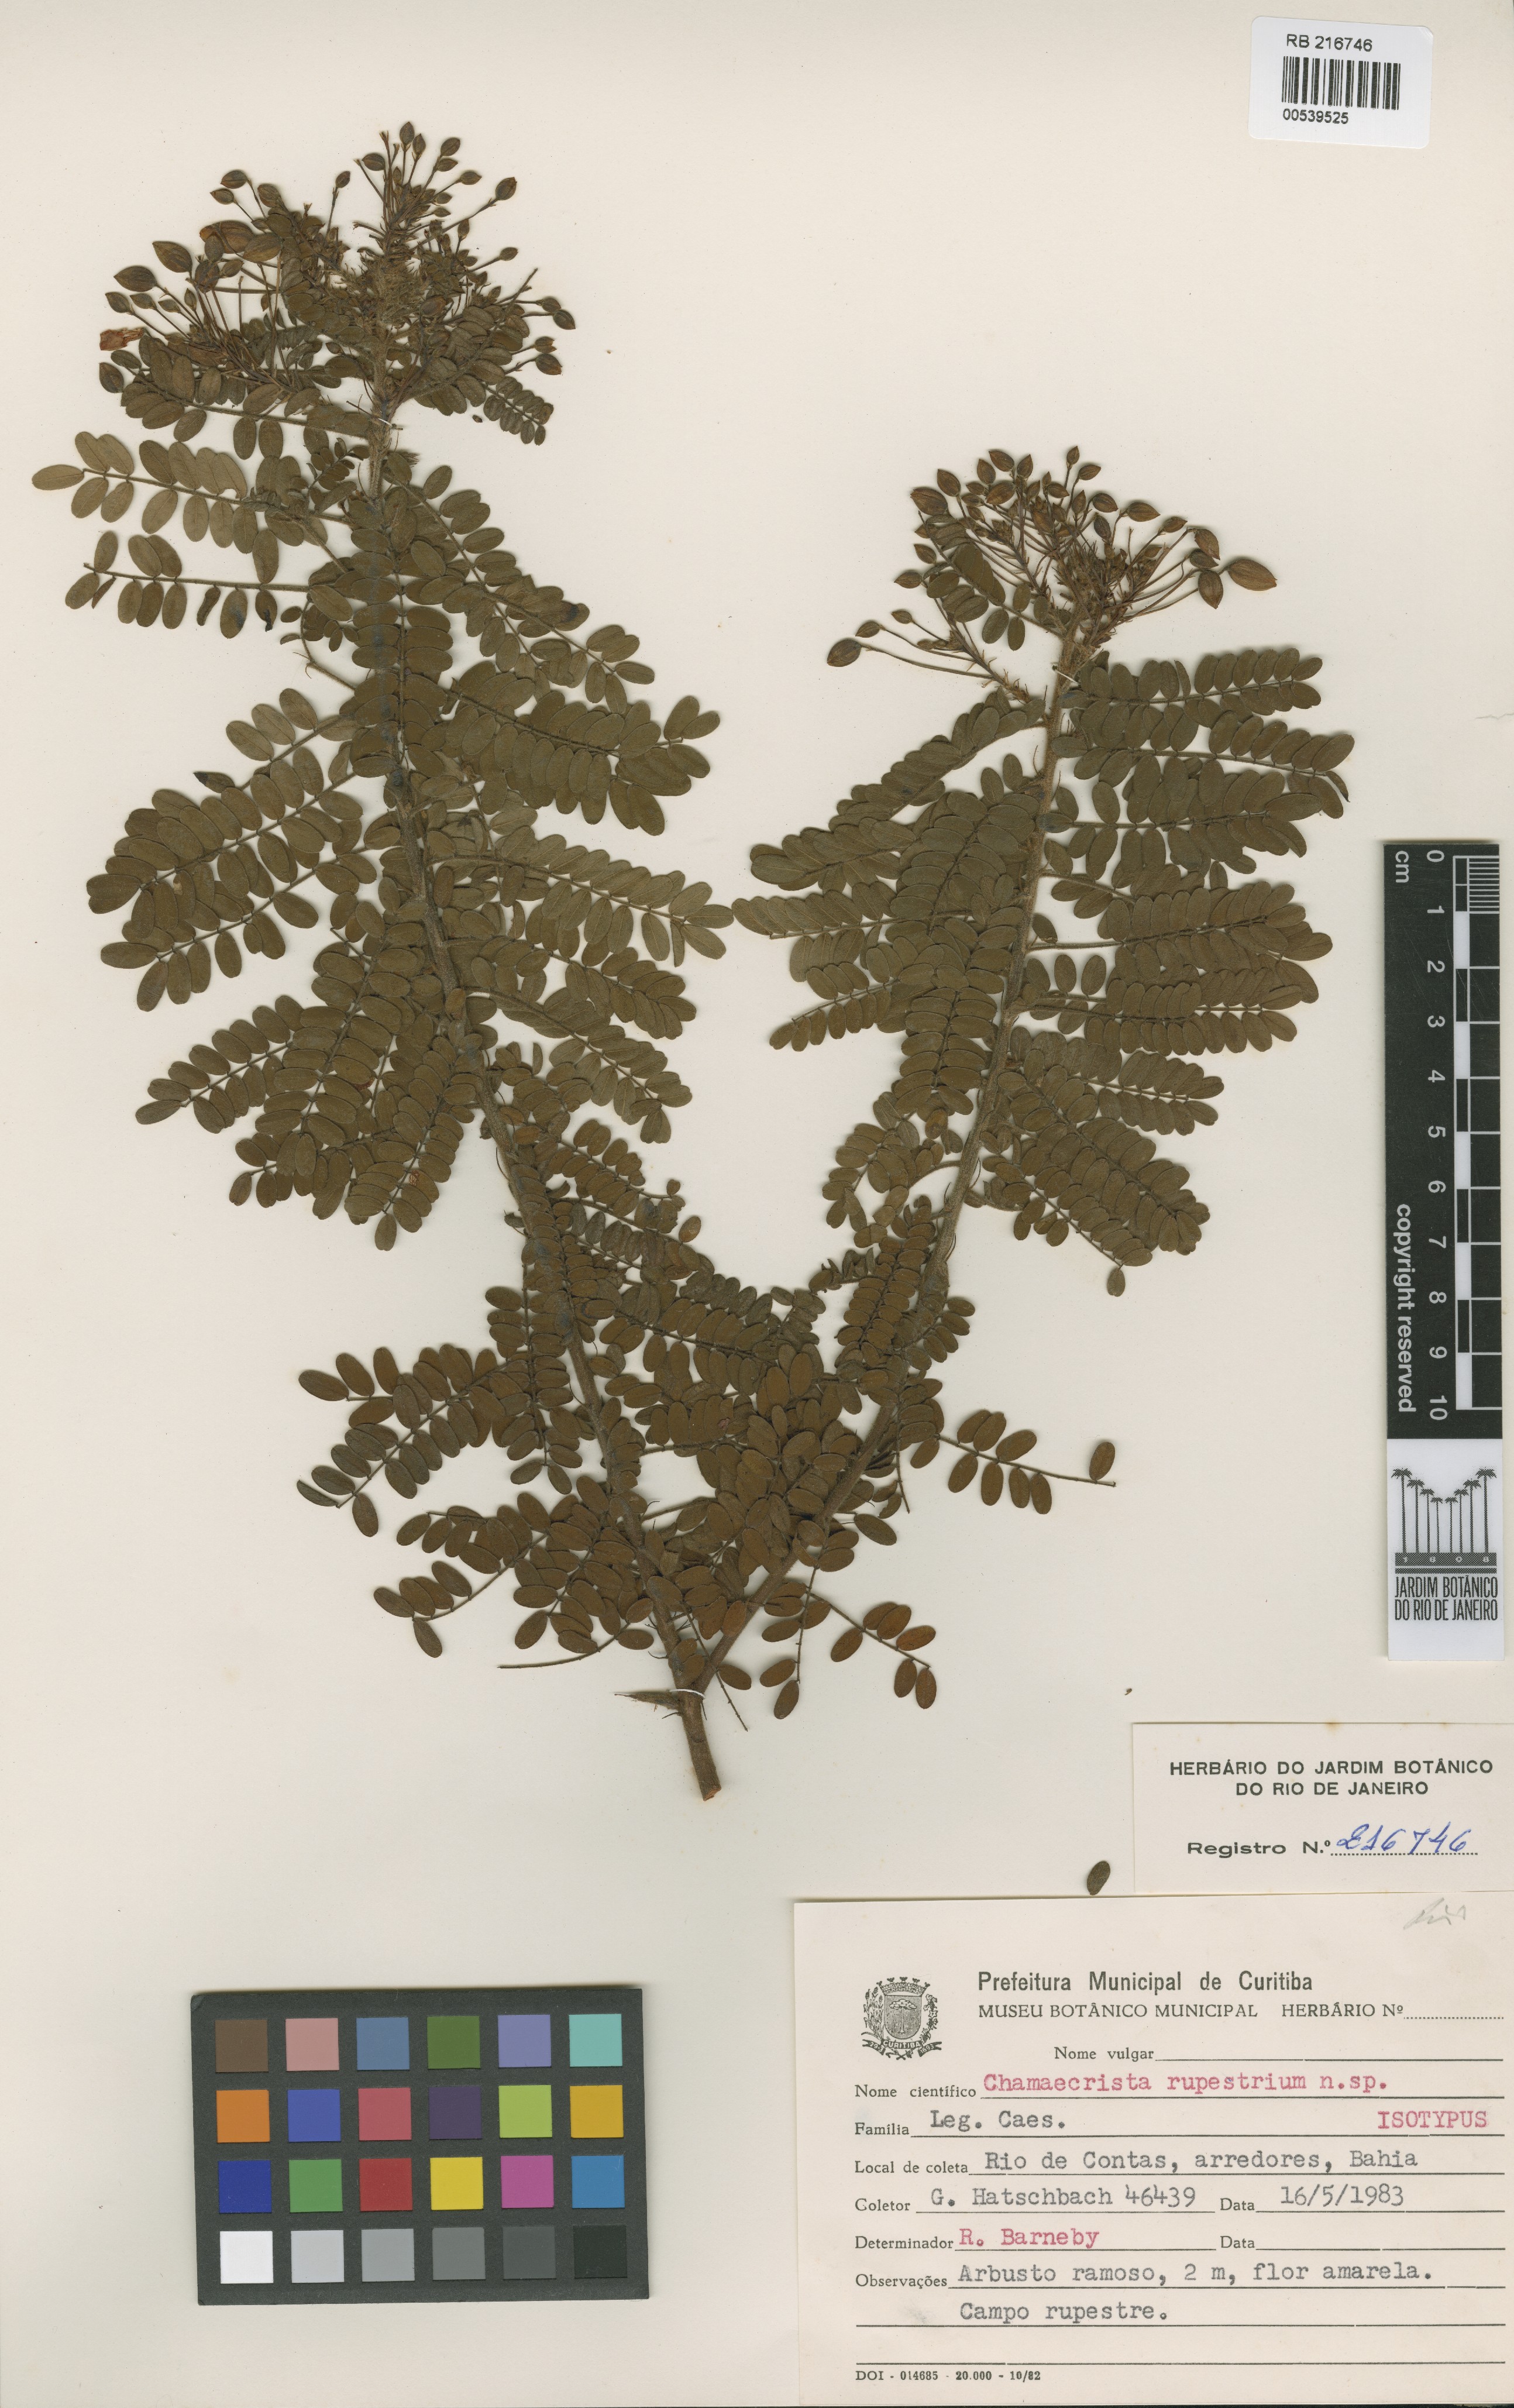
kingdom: Plantae
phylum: Tracheophyta
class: Magnoliopsida
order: Fabales
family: Fabaceae
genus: Chamaecrista
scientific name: Chamaecrista rupestrium
